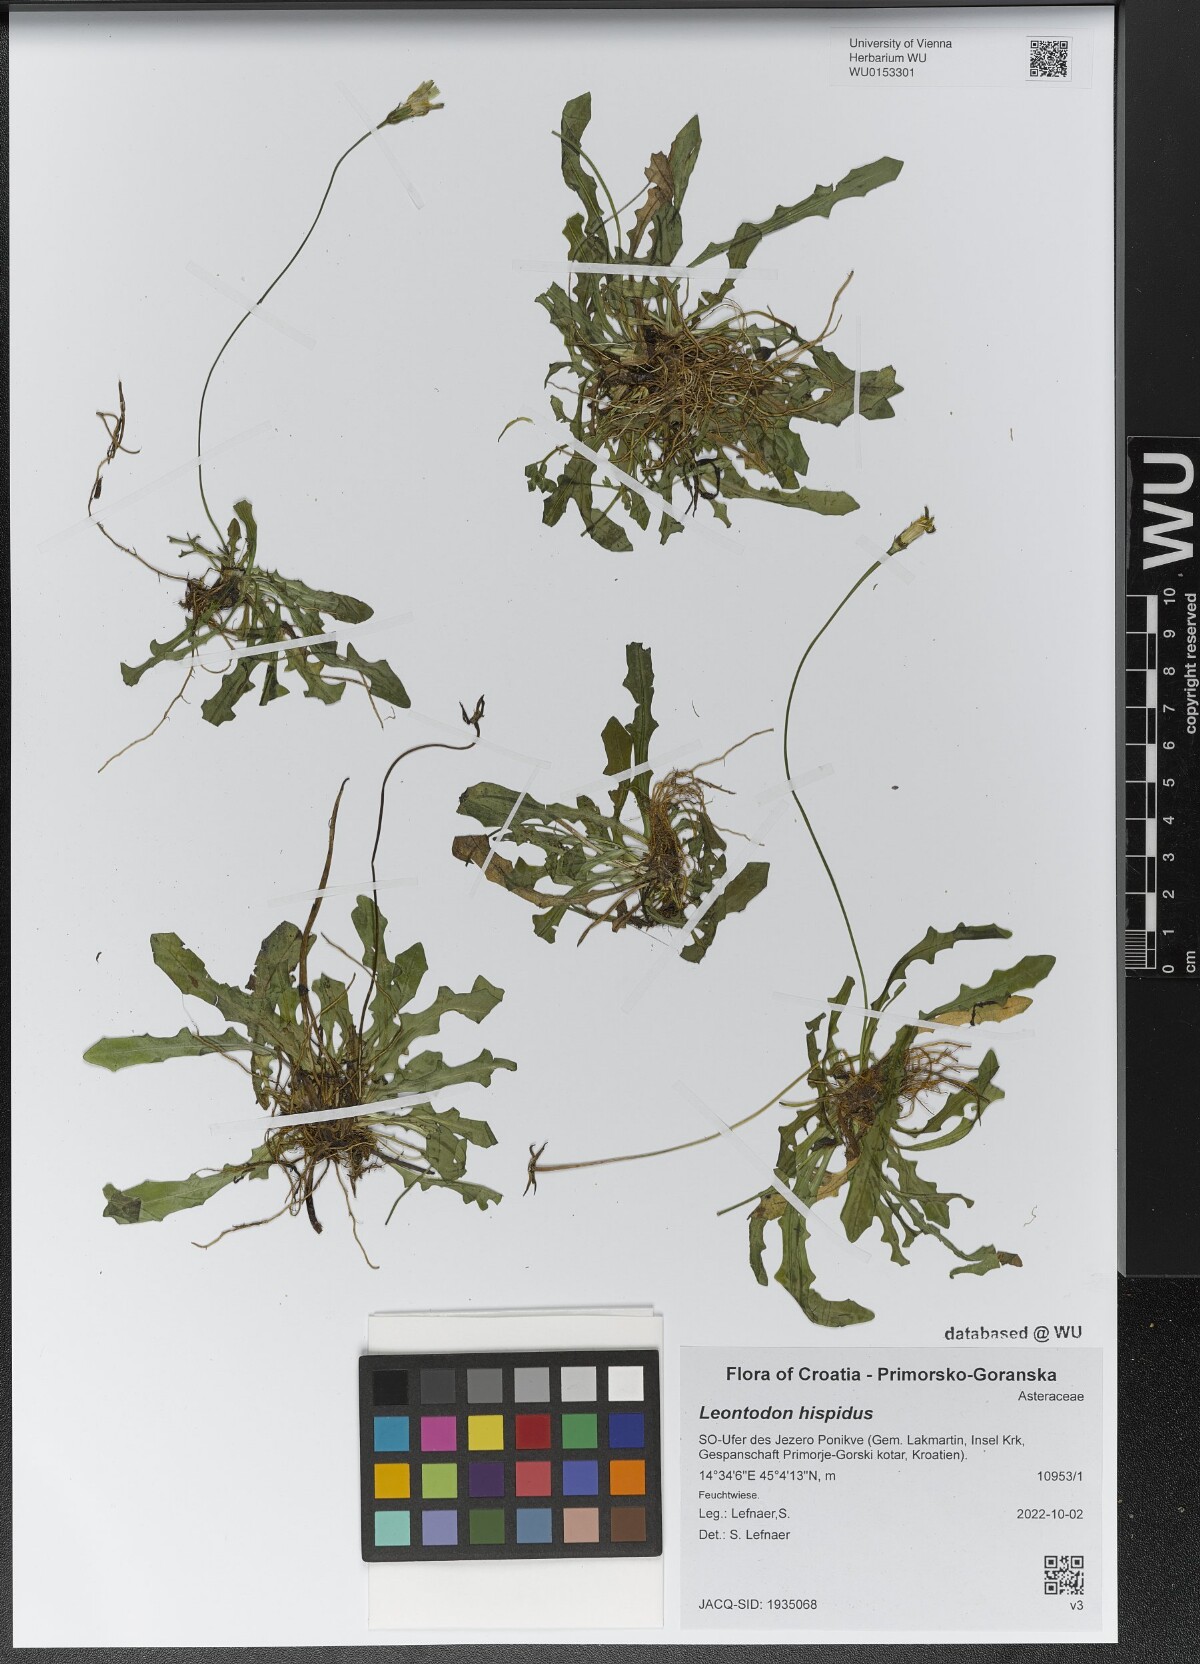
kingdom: Plantae
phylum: Tracheophyta
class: Magnoliopsida
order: Asterales
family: Asteraceae
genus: Leontodon
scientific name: Leontodon hispidus
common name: Rough hawkbit
